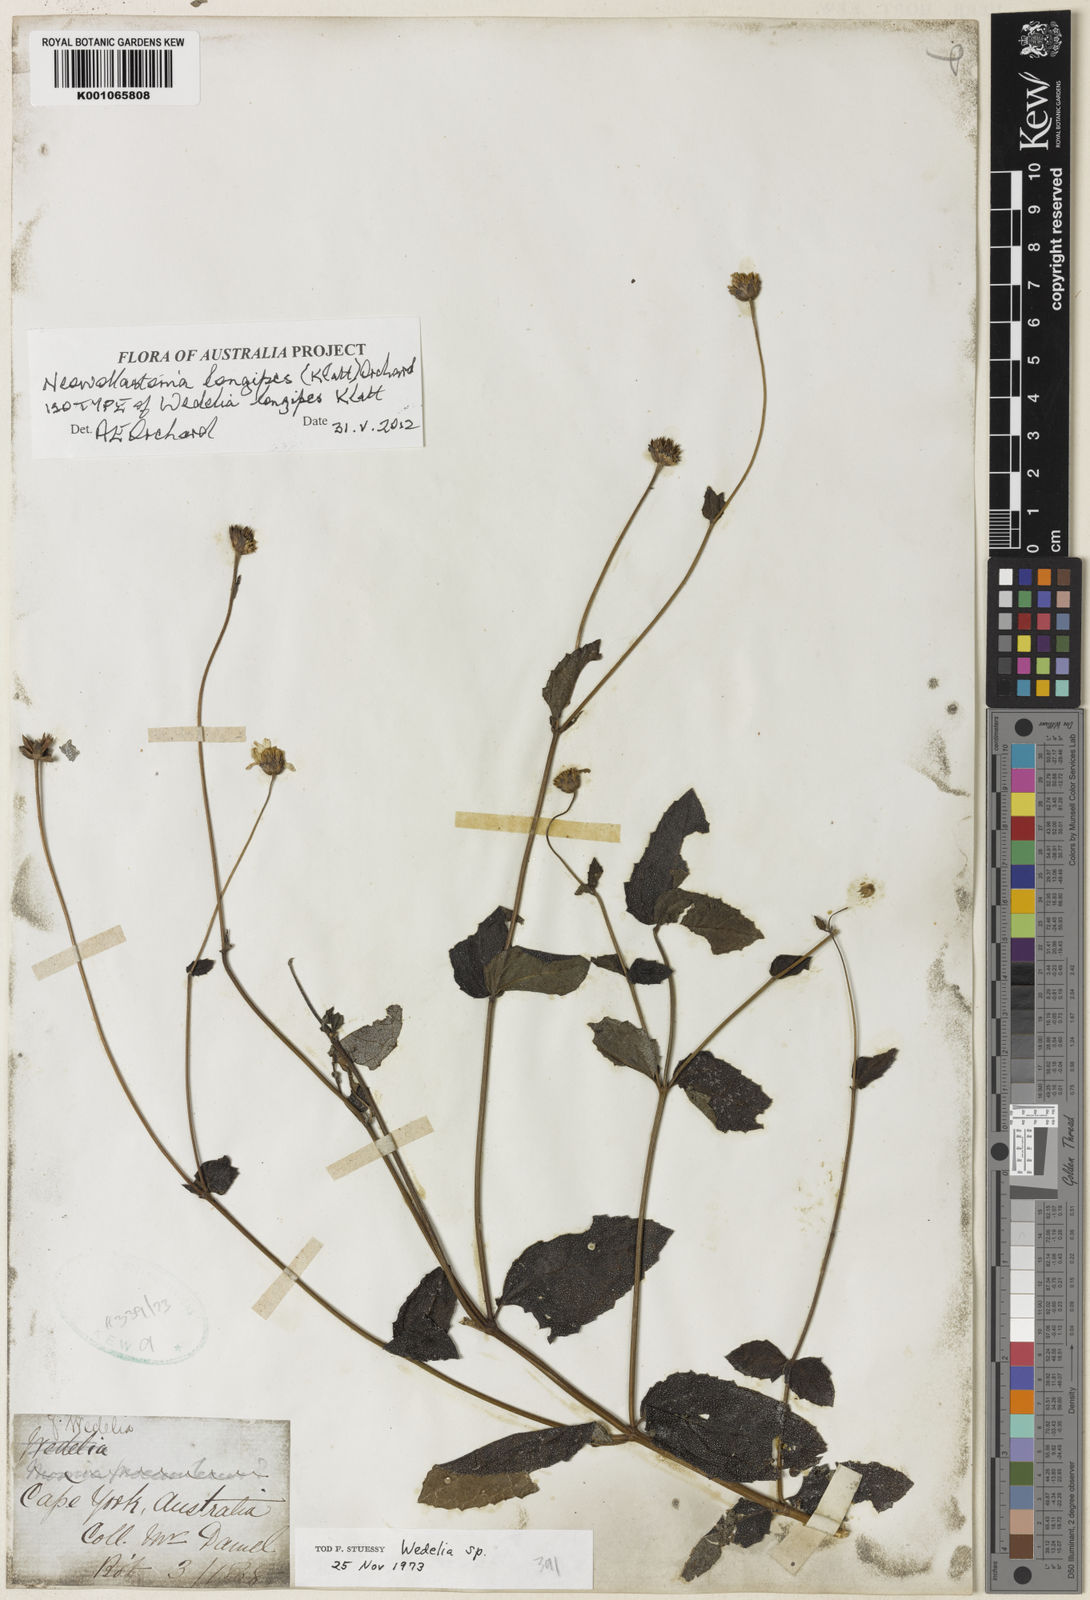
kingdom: Plantae
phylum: Tracheophyta
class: Magnoliopsida
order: Asterales
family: Asteraceae
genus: Apowollastonia
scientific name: Apowollastonia longipes
